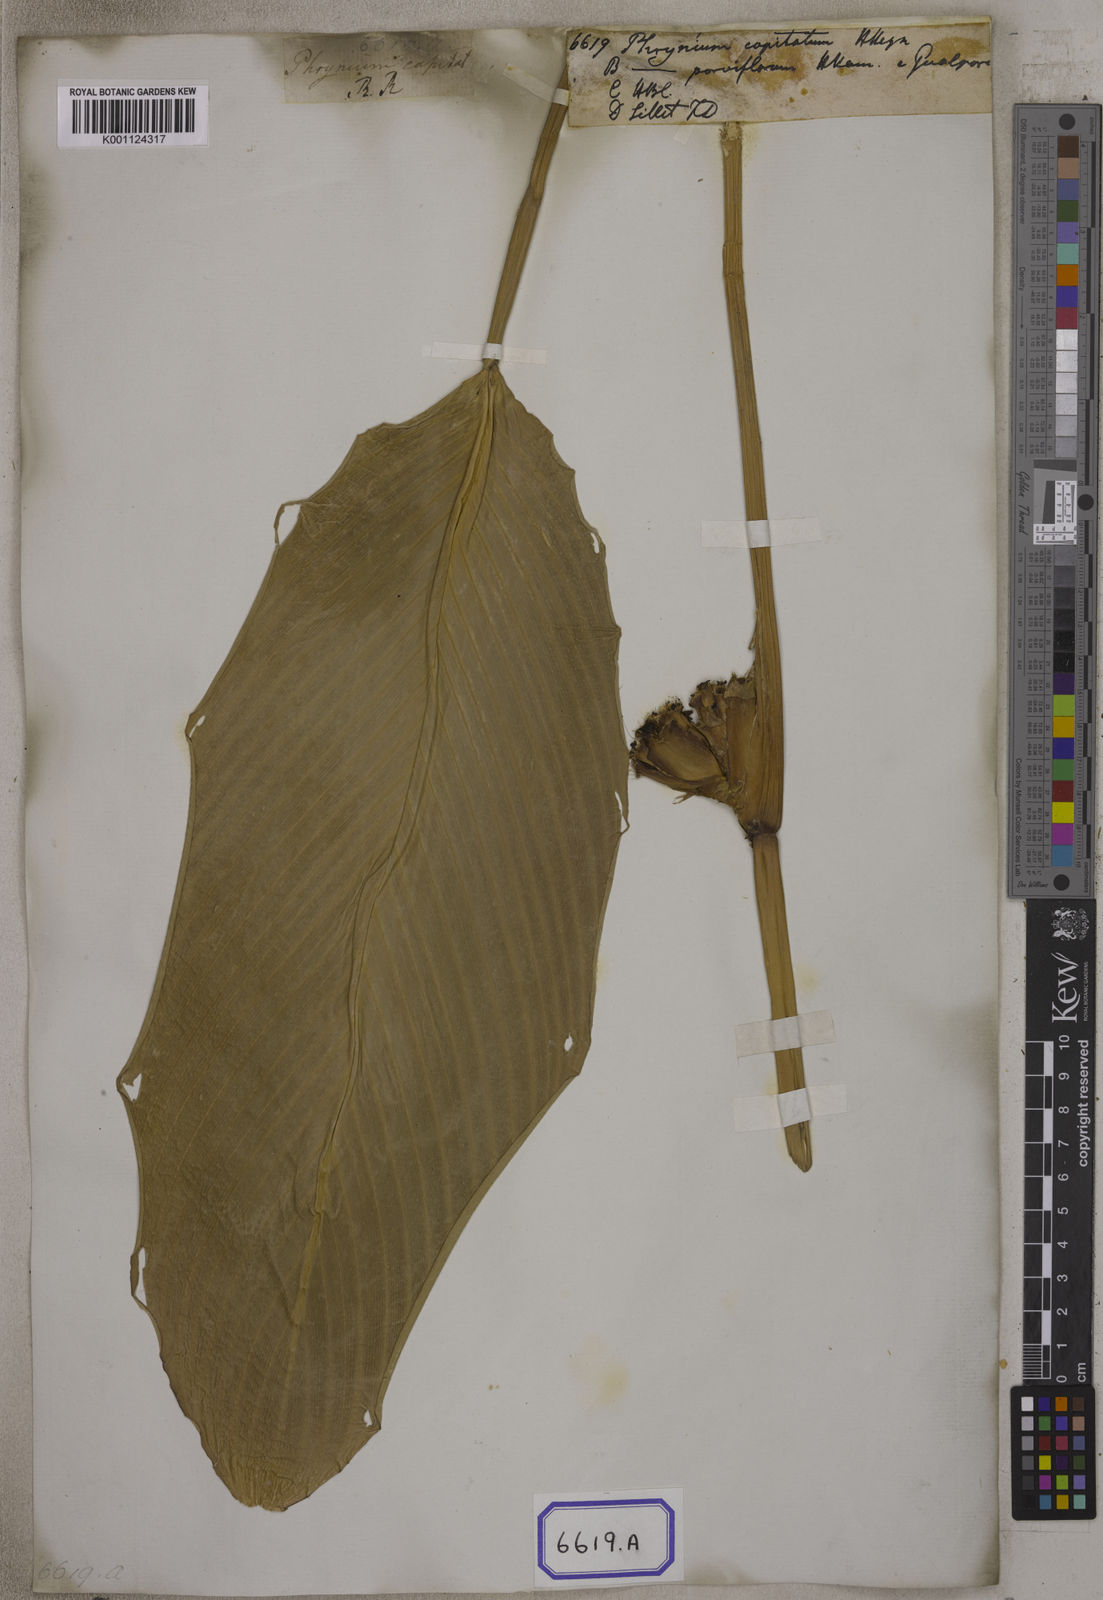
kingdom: Plantae
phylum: Tracheophyta
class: Liliopsida
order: Zingiberales
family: Marantaceae
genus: Phrynium
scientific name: Phrynium pubinerve
